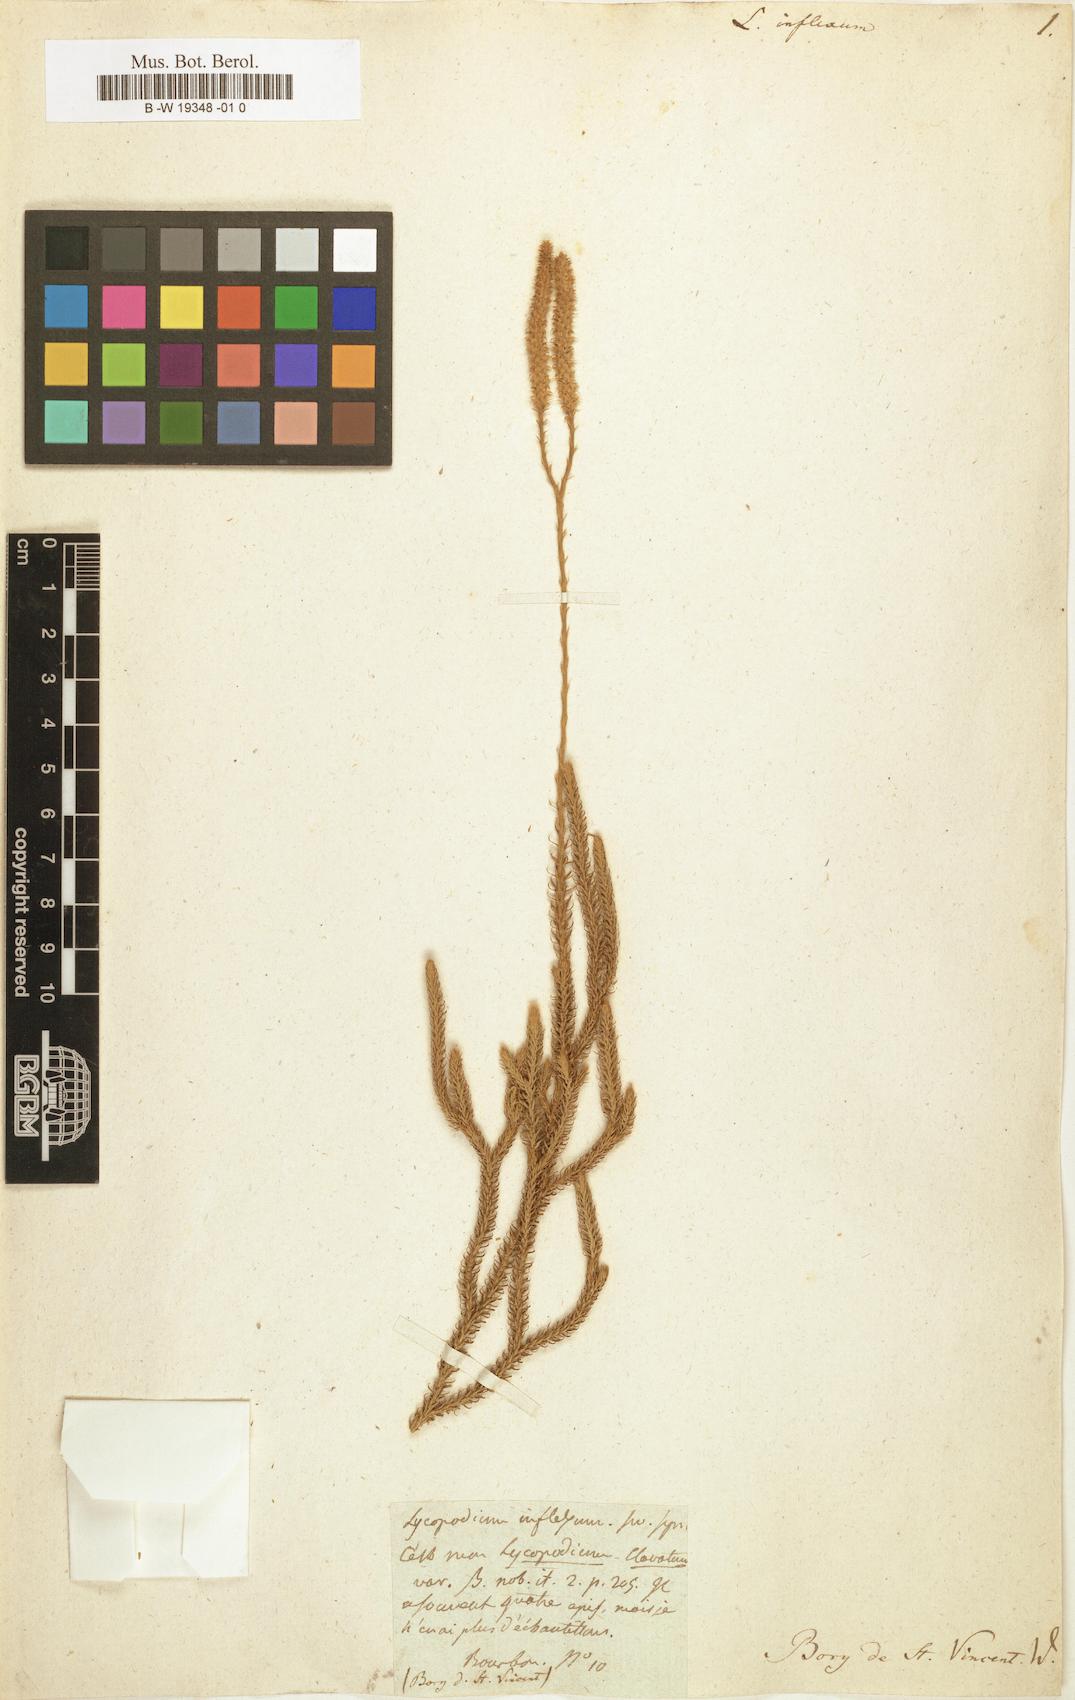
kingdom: Plantae
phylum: Tracheophyta
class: Lycopodiopsida
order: Lycopodiales
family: Lycopodiaceae
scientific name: Lycopodiaceae
